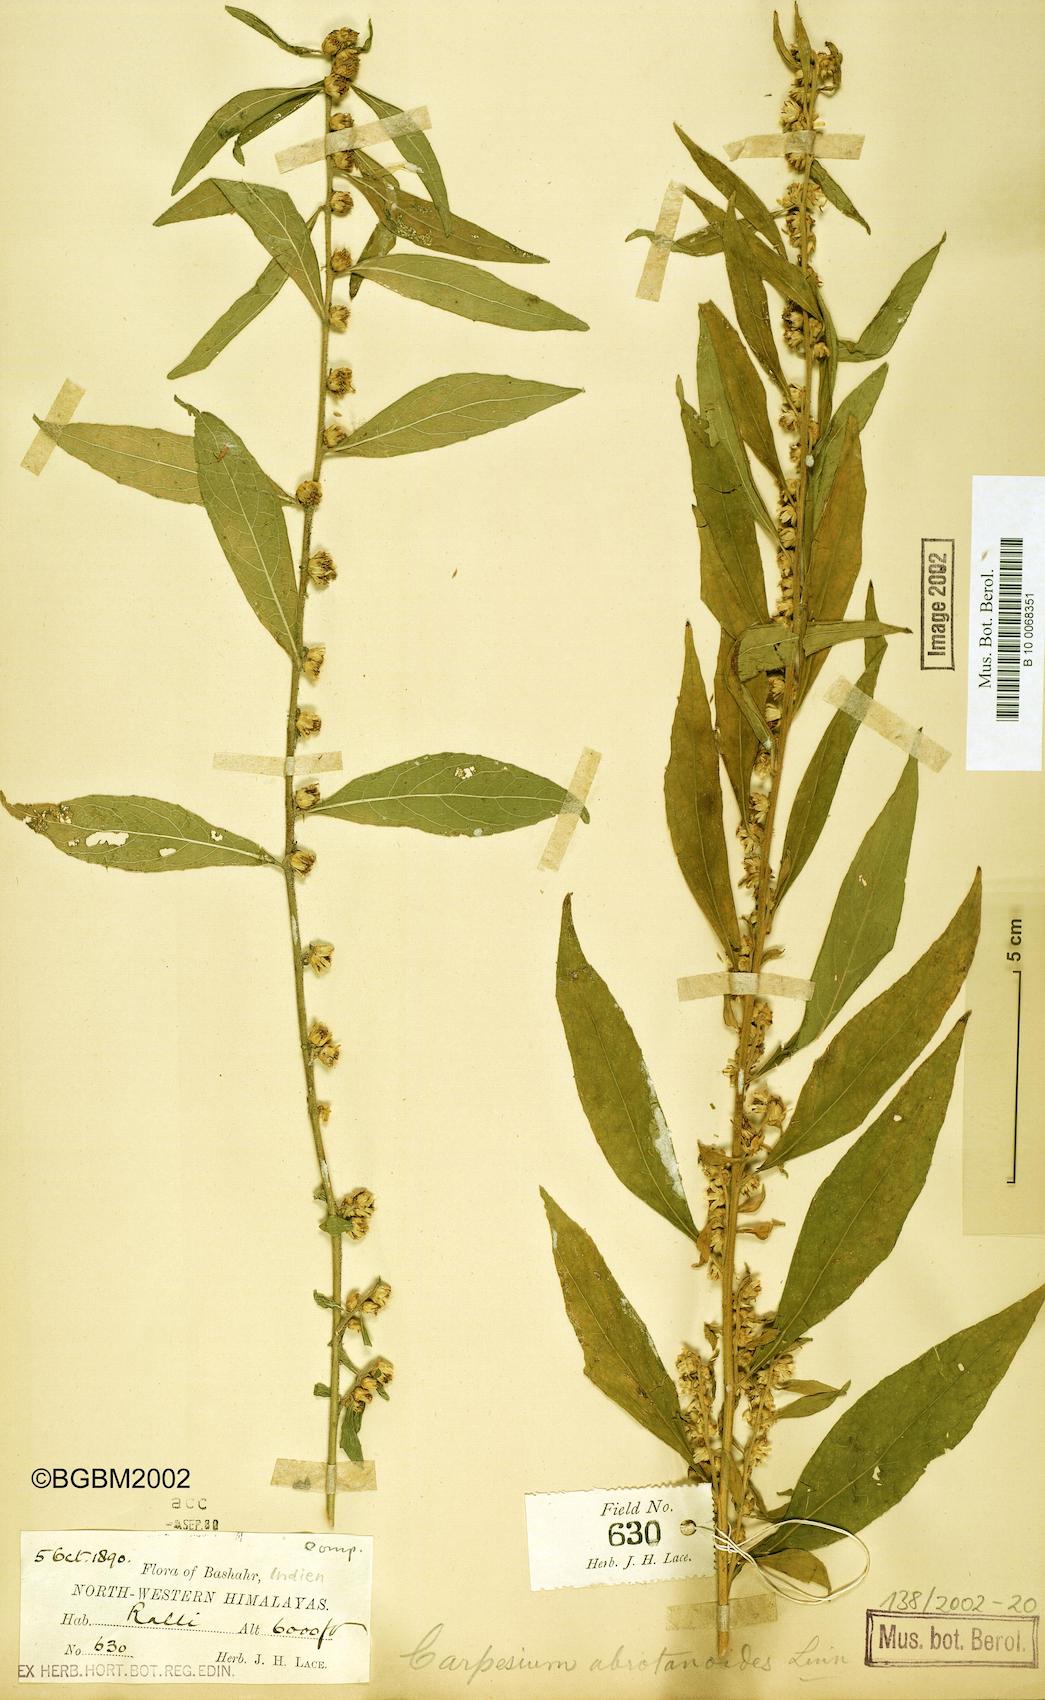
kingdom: Plantae
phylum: Tracheophyta
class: Magnoliopsida
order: Asterales
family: Asteraceae
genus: Carpesium
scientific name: Carpesium abrotanoides
